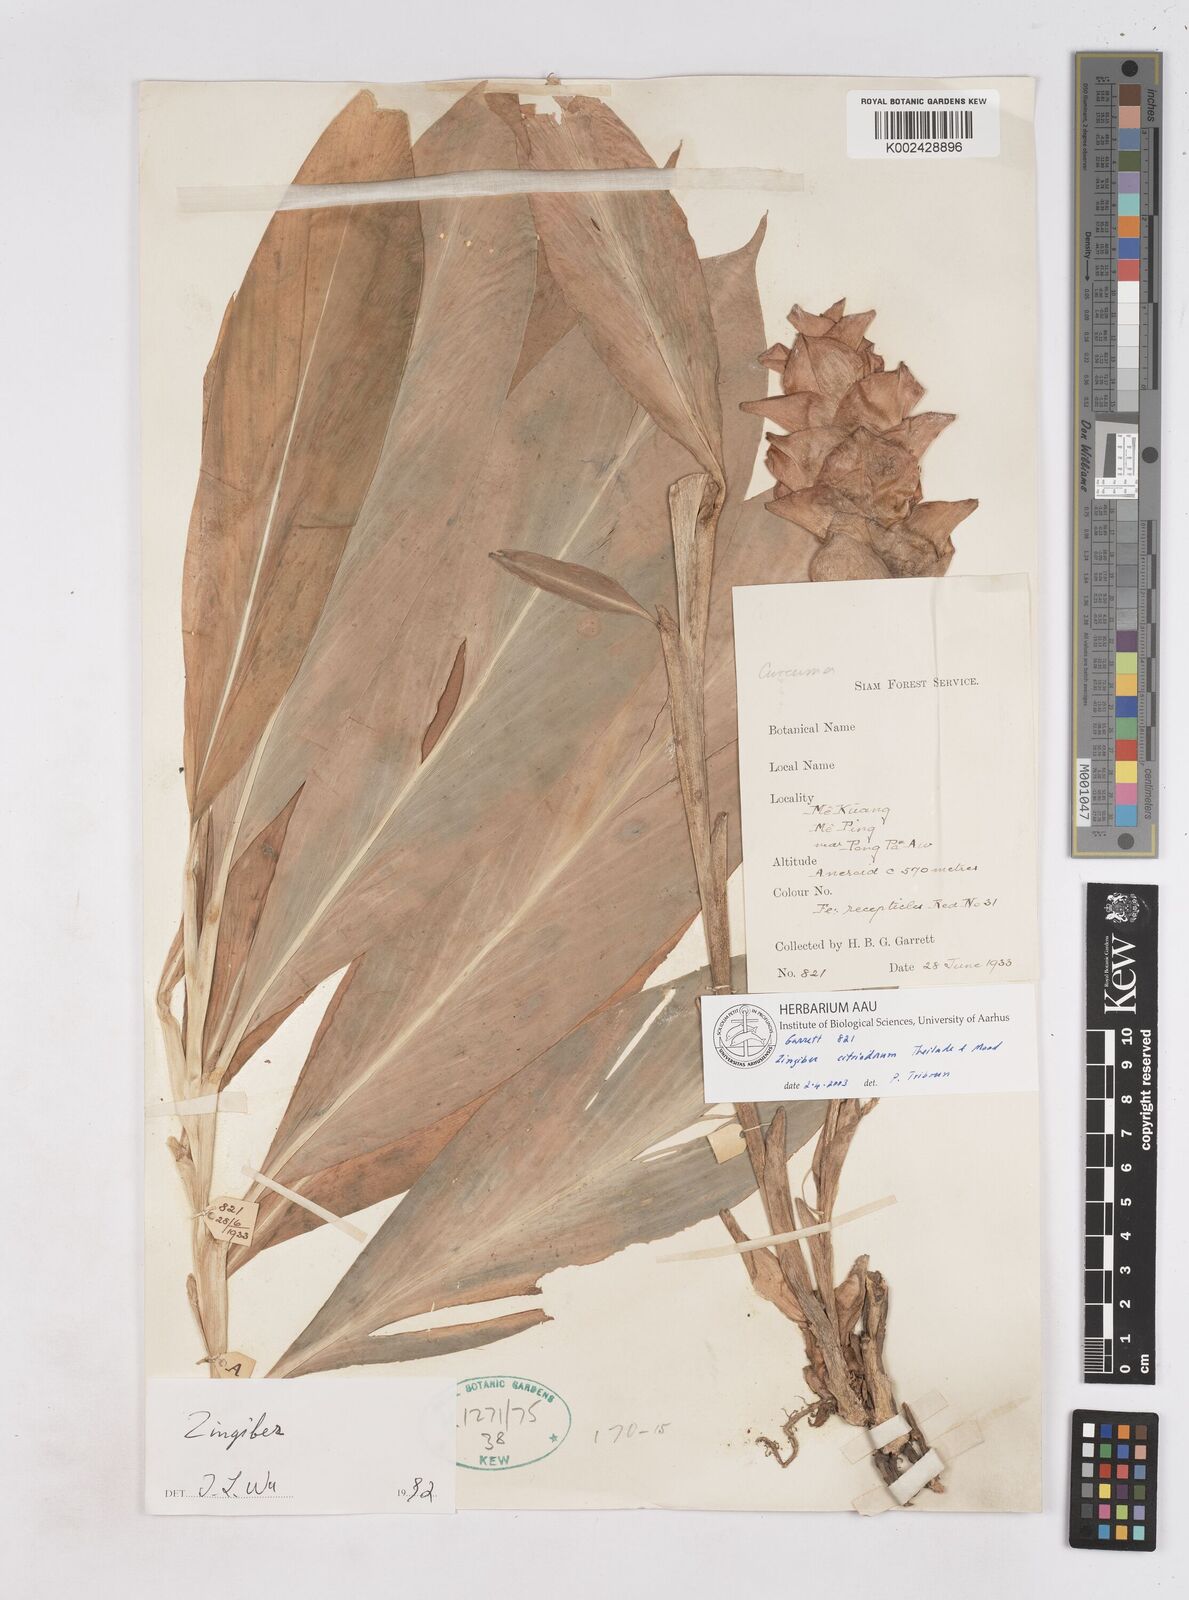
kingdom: Plantae
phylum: Tracheophyta
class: Liliopsida
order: Zingiberales
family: Zingiberaceae
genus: Zingiber
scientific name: Zingiber citriodorum
